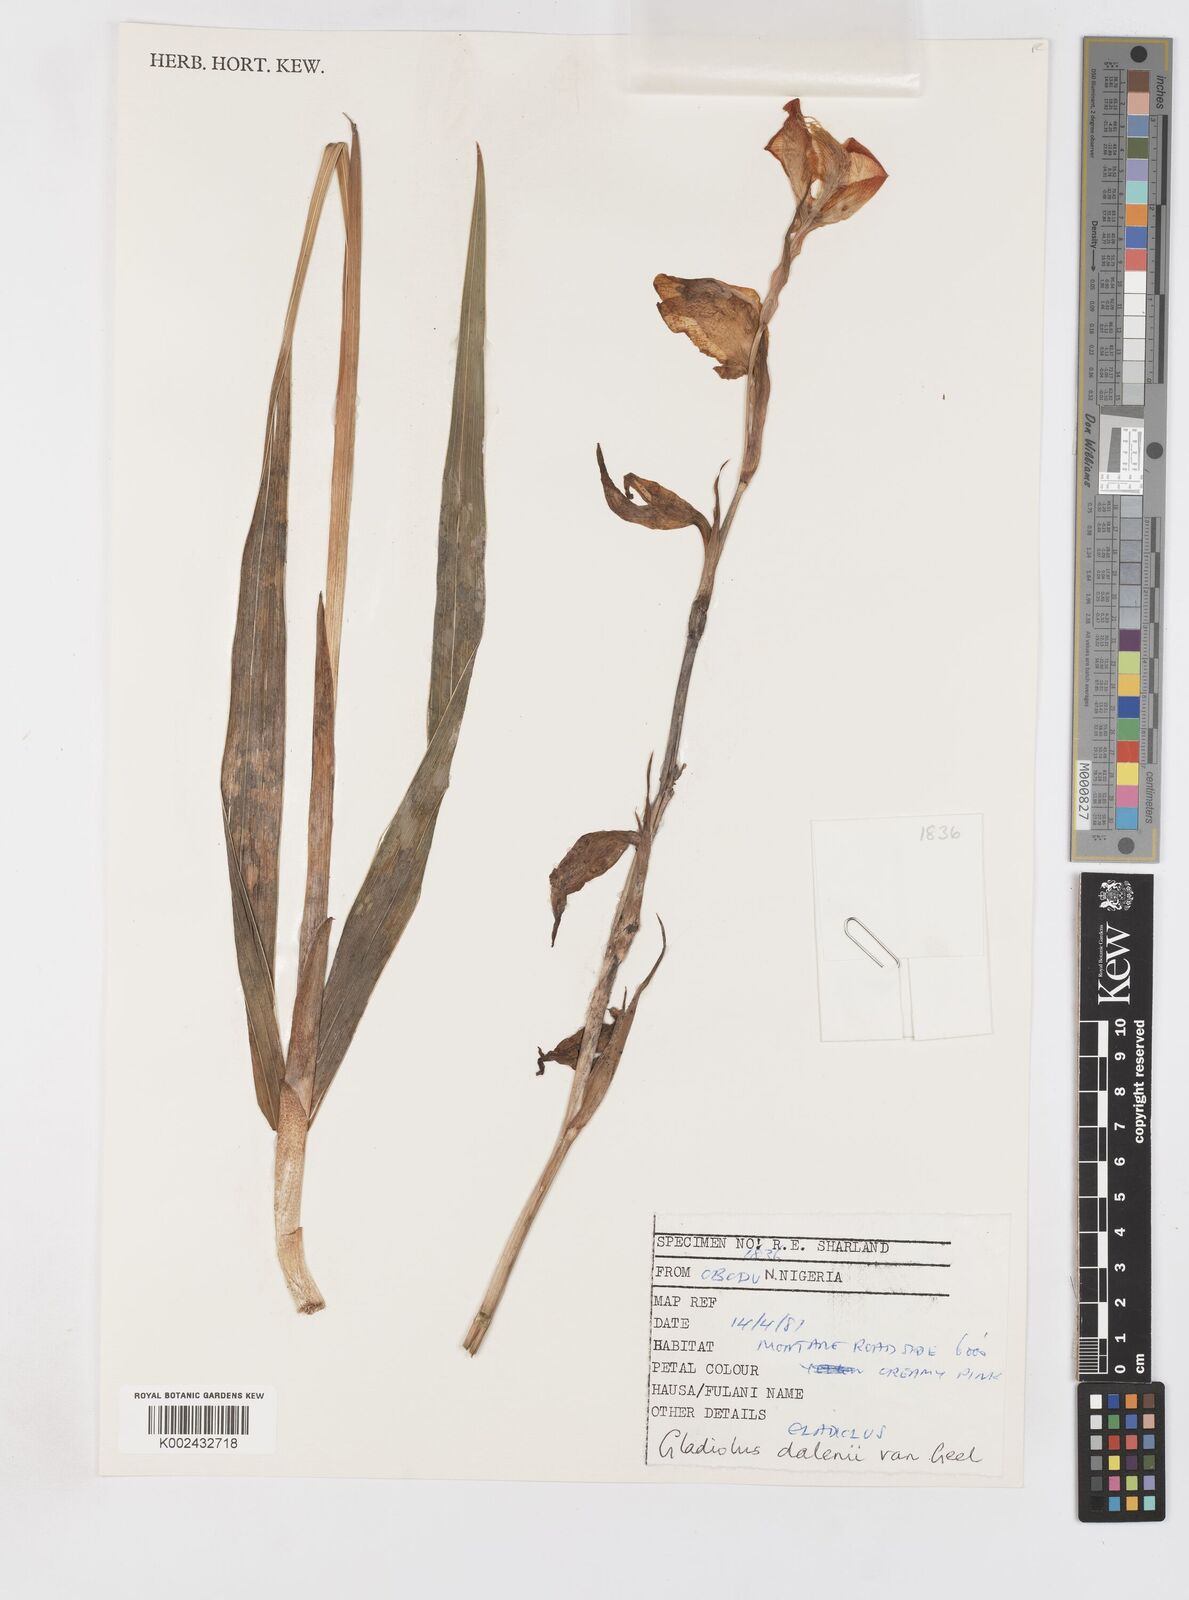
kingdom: Plantae
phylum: Tracheophyta
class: Liliopsida
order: Asparagales
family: Iridaceae
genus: Gladiolus
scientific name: Gladiolus dalenii
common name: Cornflag
